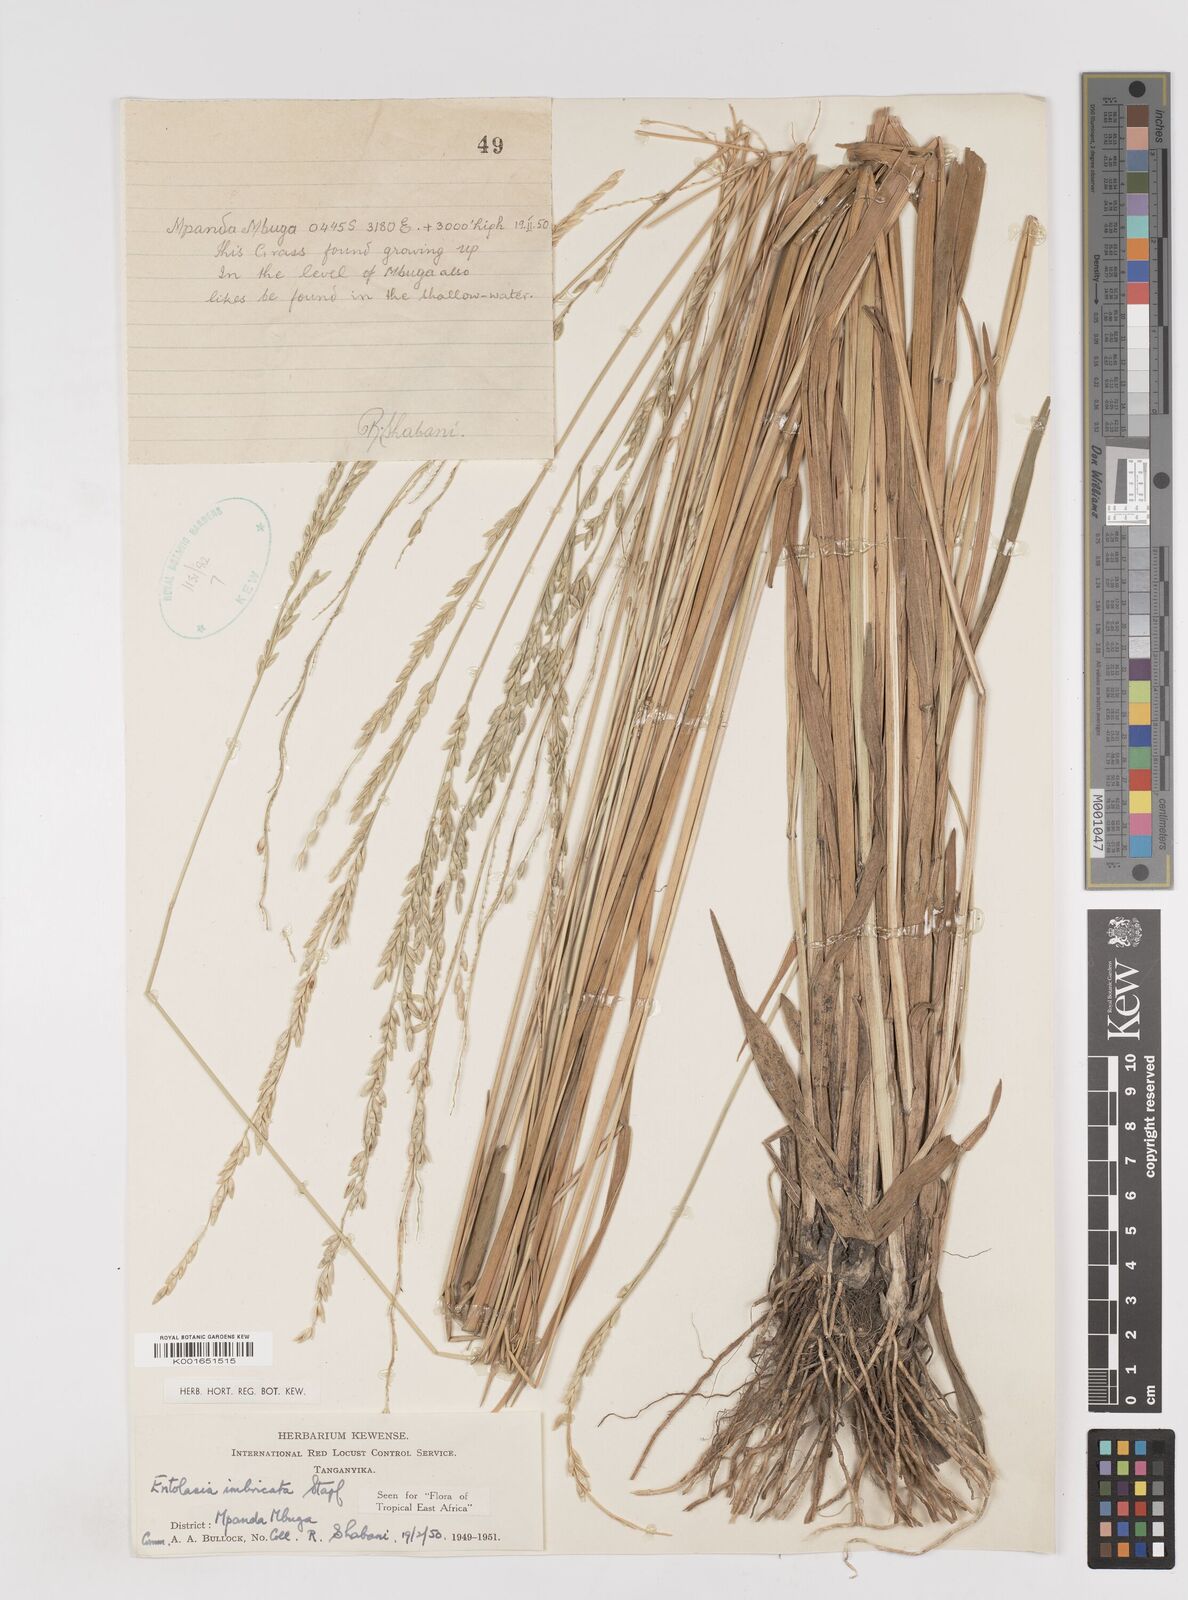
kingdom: Plantae
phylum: Tracheophyta
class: Liliopsida
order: Poales
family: Poaceae
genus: Entolasia
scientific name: Entolasia imbricata
